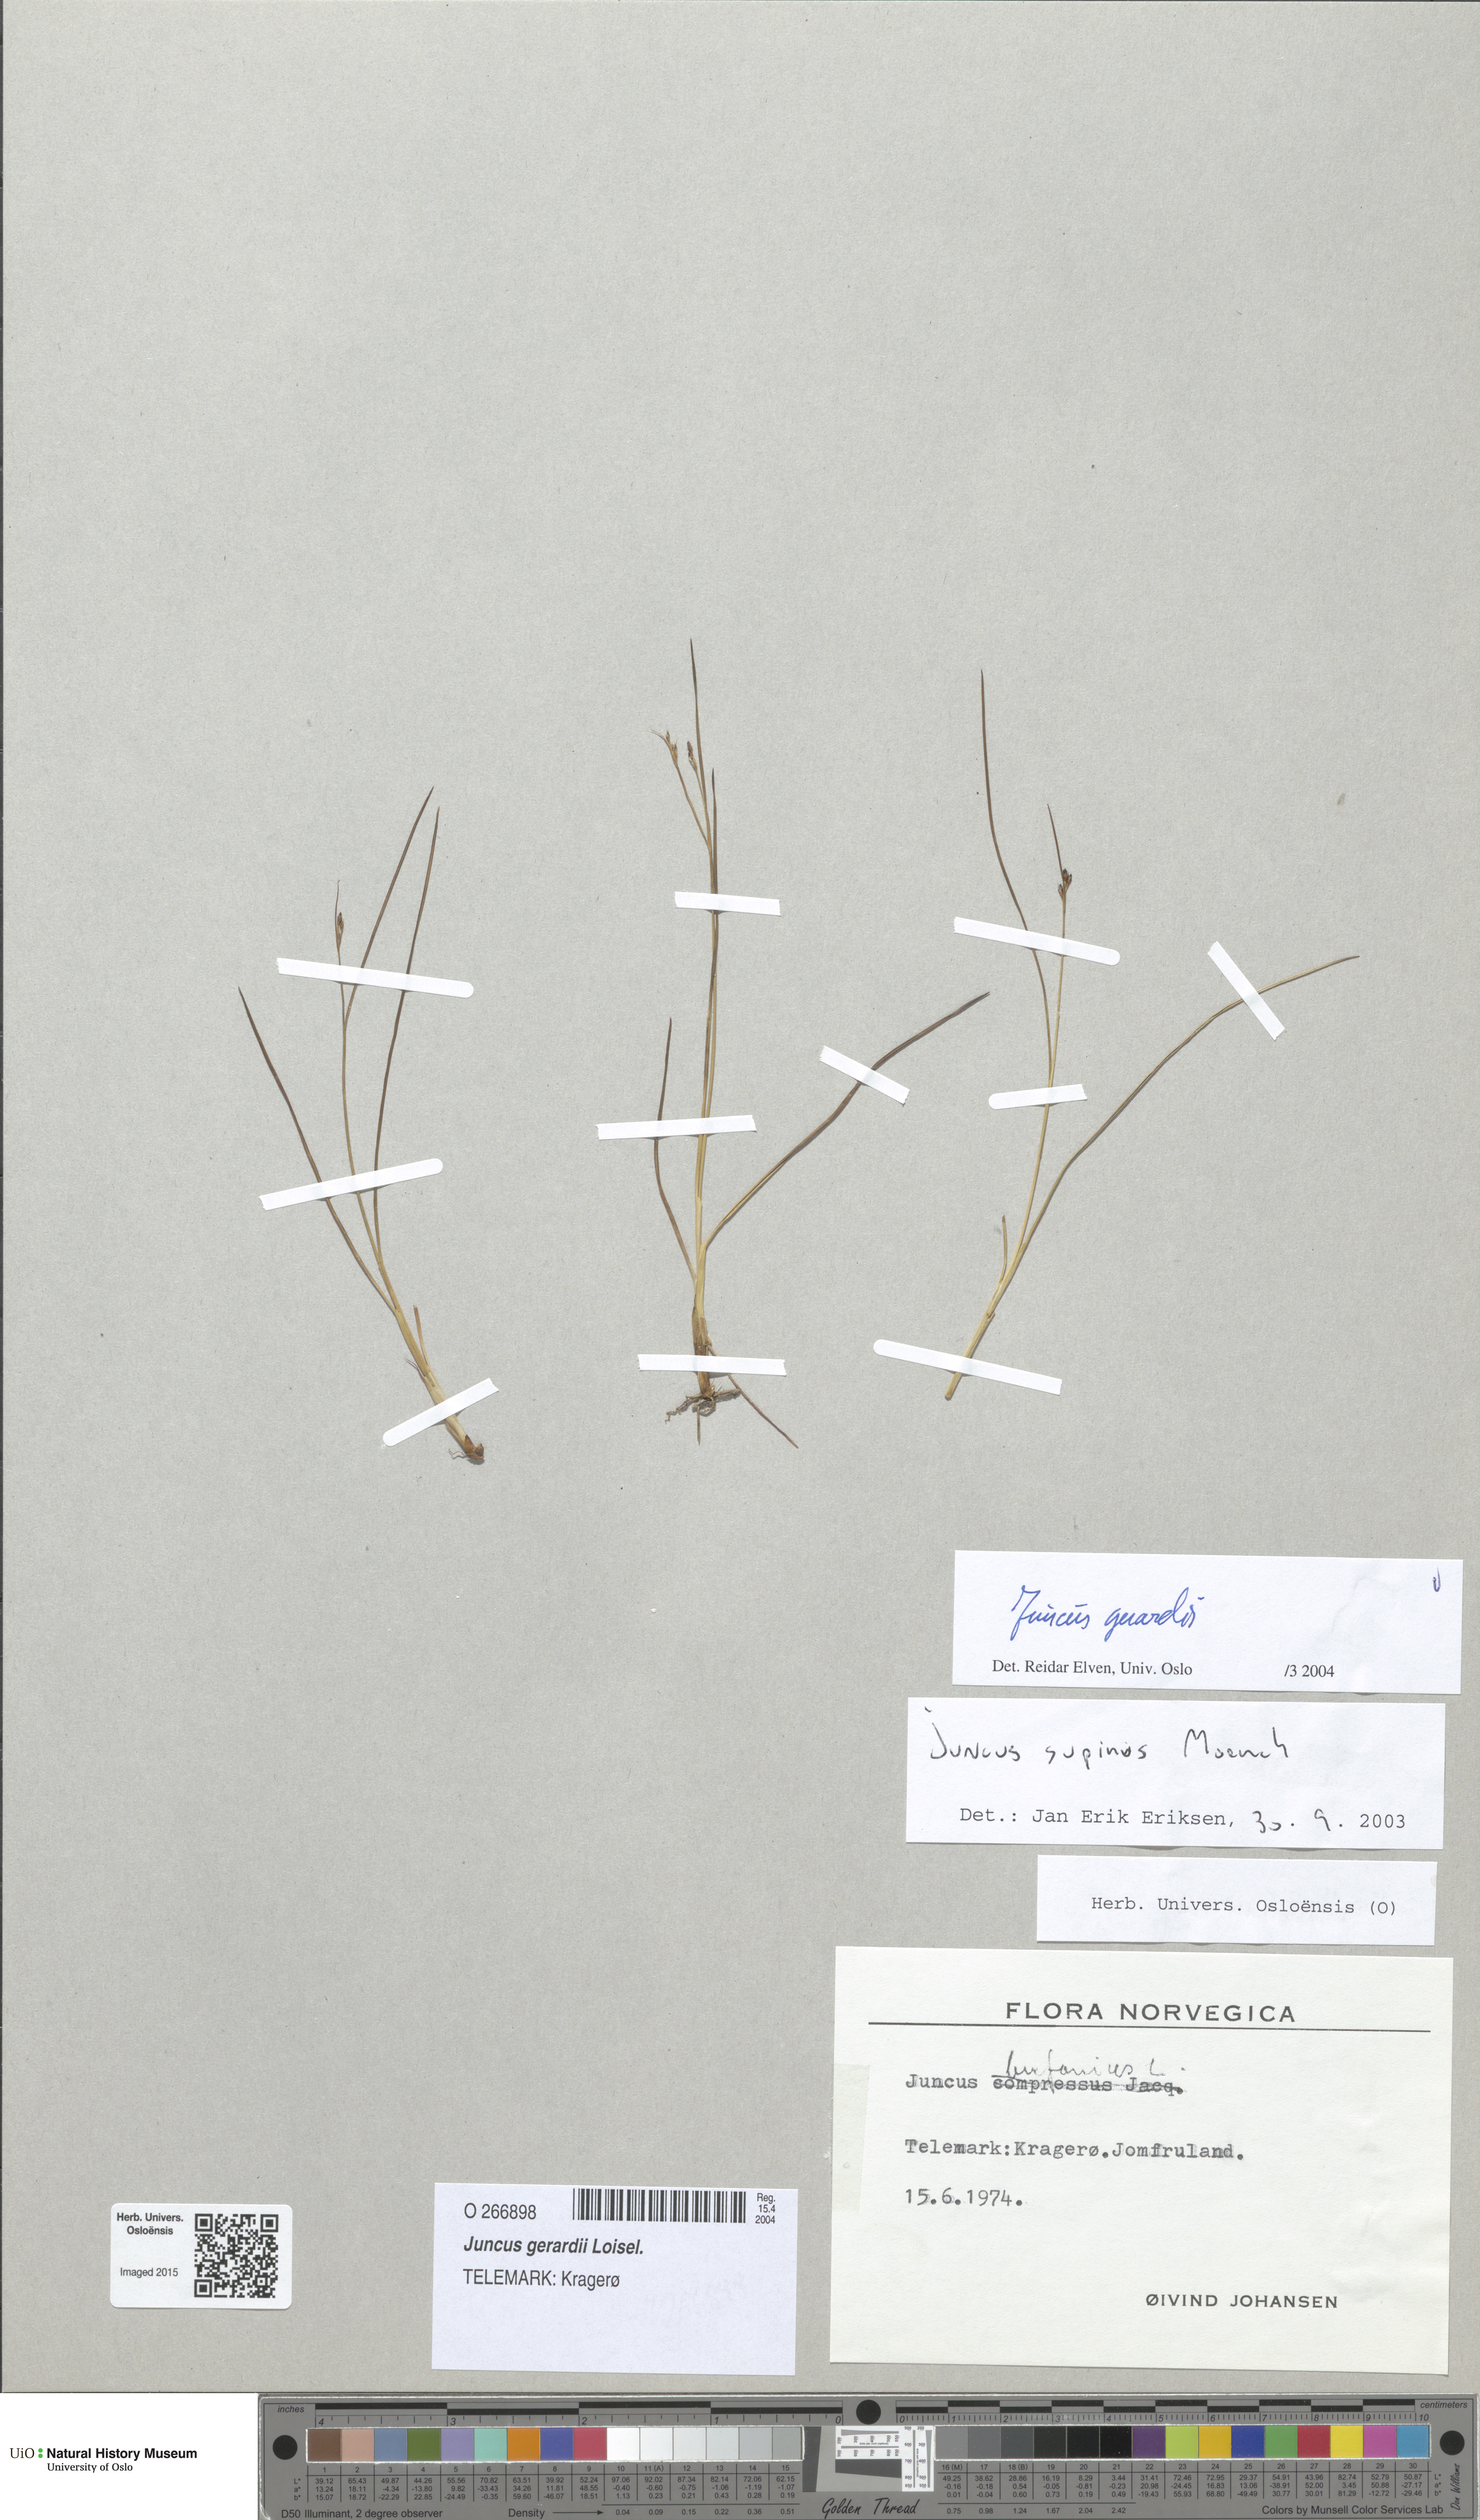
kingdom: Plantae
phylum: Tracheophyta
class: Liliopsida
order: Poales
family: Juncaceae
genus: Juncus
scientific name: Juncus gerardi
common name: Saltmarsh rush
